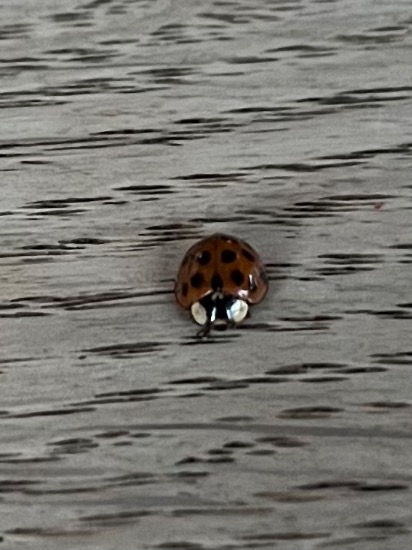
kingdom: Animalia
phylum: Arthropoda
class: Insecta
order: Coleoptera
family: Coccinellidae
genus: Harmonia
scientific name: Harmonia axyridis
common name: Harlekinmariehøne
